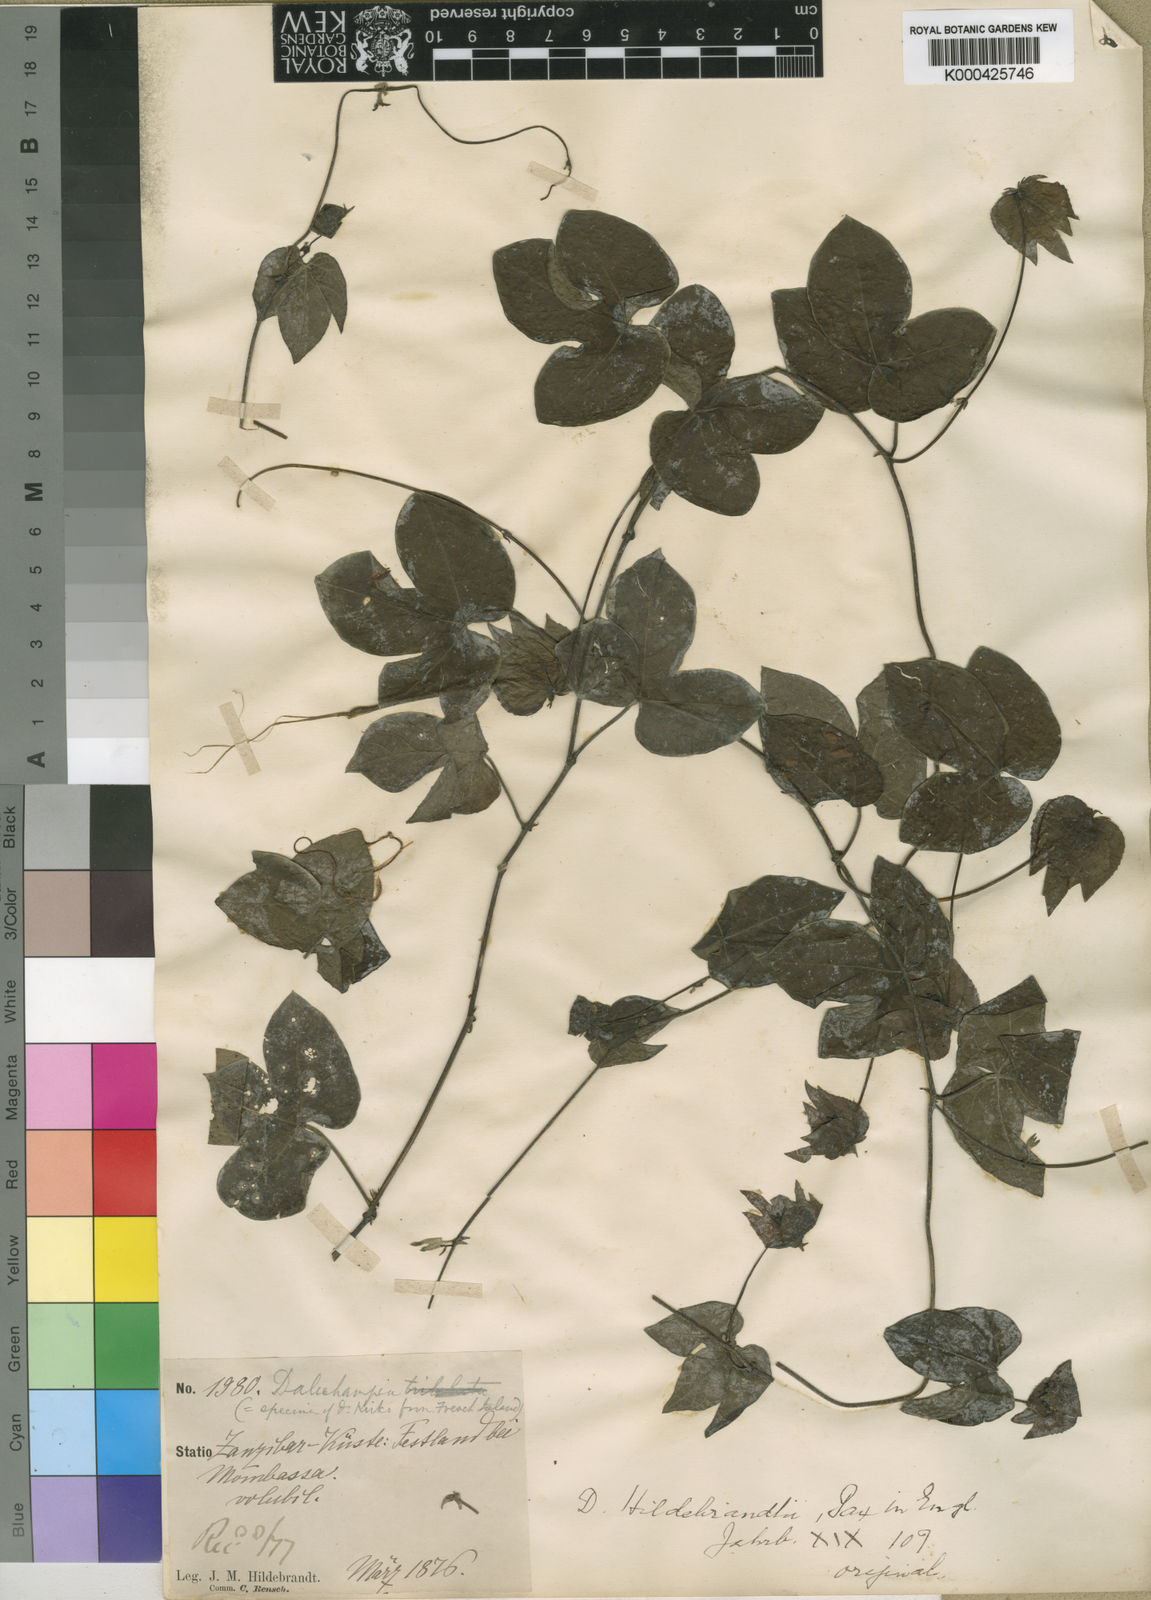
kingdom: Plantae
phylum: Tracheophyta
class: Magnoliopsida
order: Malpighiales
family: Euphorbiaceae
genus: Dalechampia
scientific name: Dalechampia scandens
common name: Spurgecreeper
